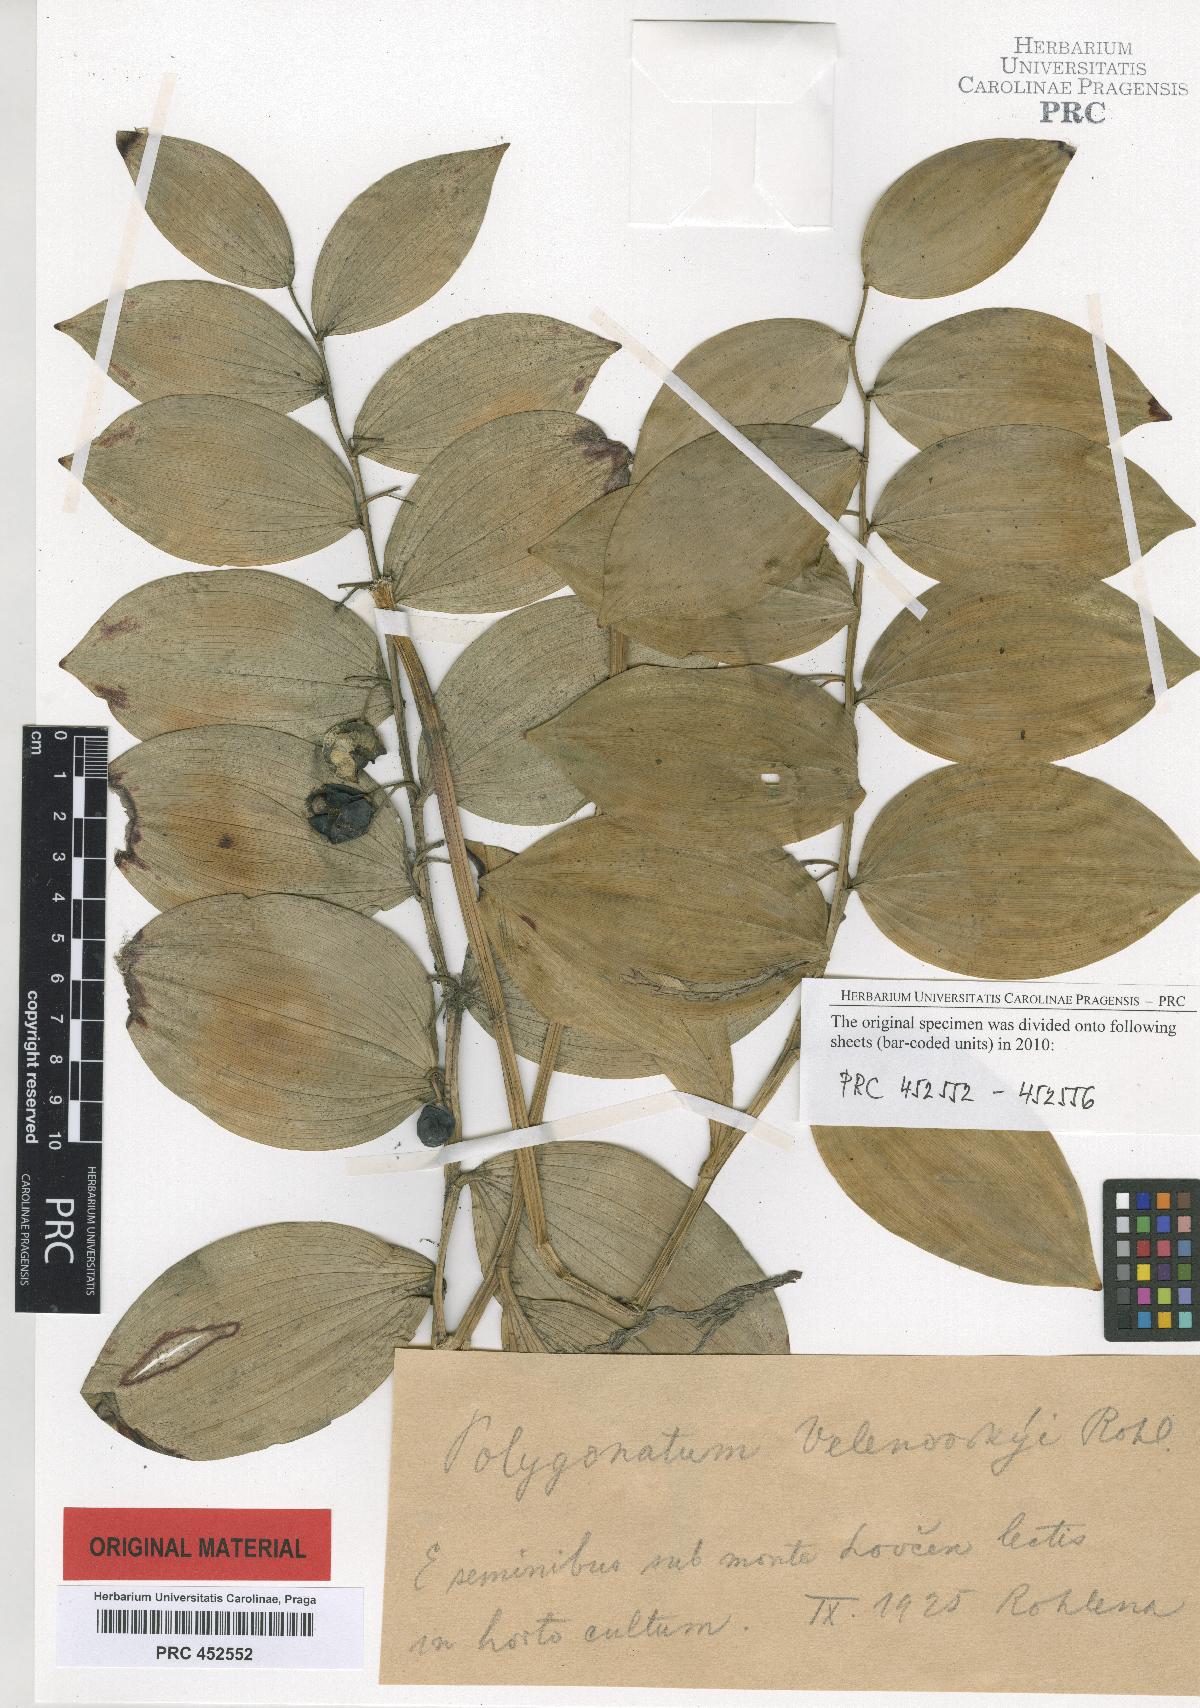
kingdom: Plantae
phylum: Tracheophyta
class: Liliopsida
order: Asparagales
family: Asparagaceae
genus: Polygonatum
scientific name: Polygonatum velenovskyi
